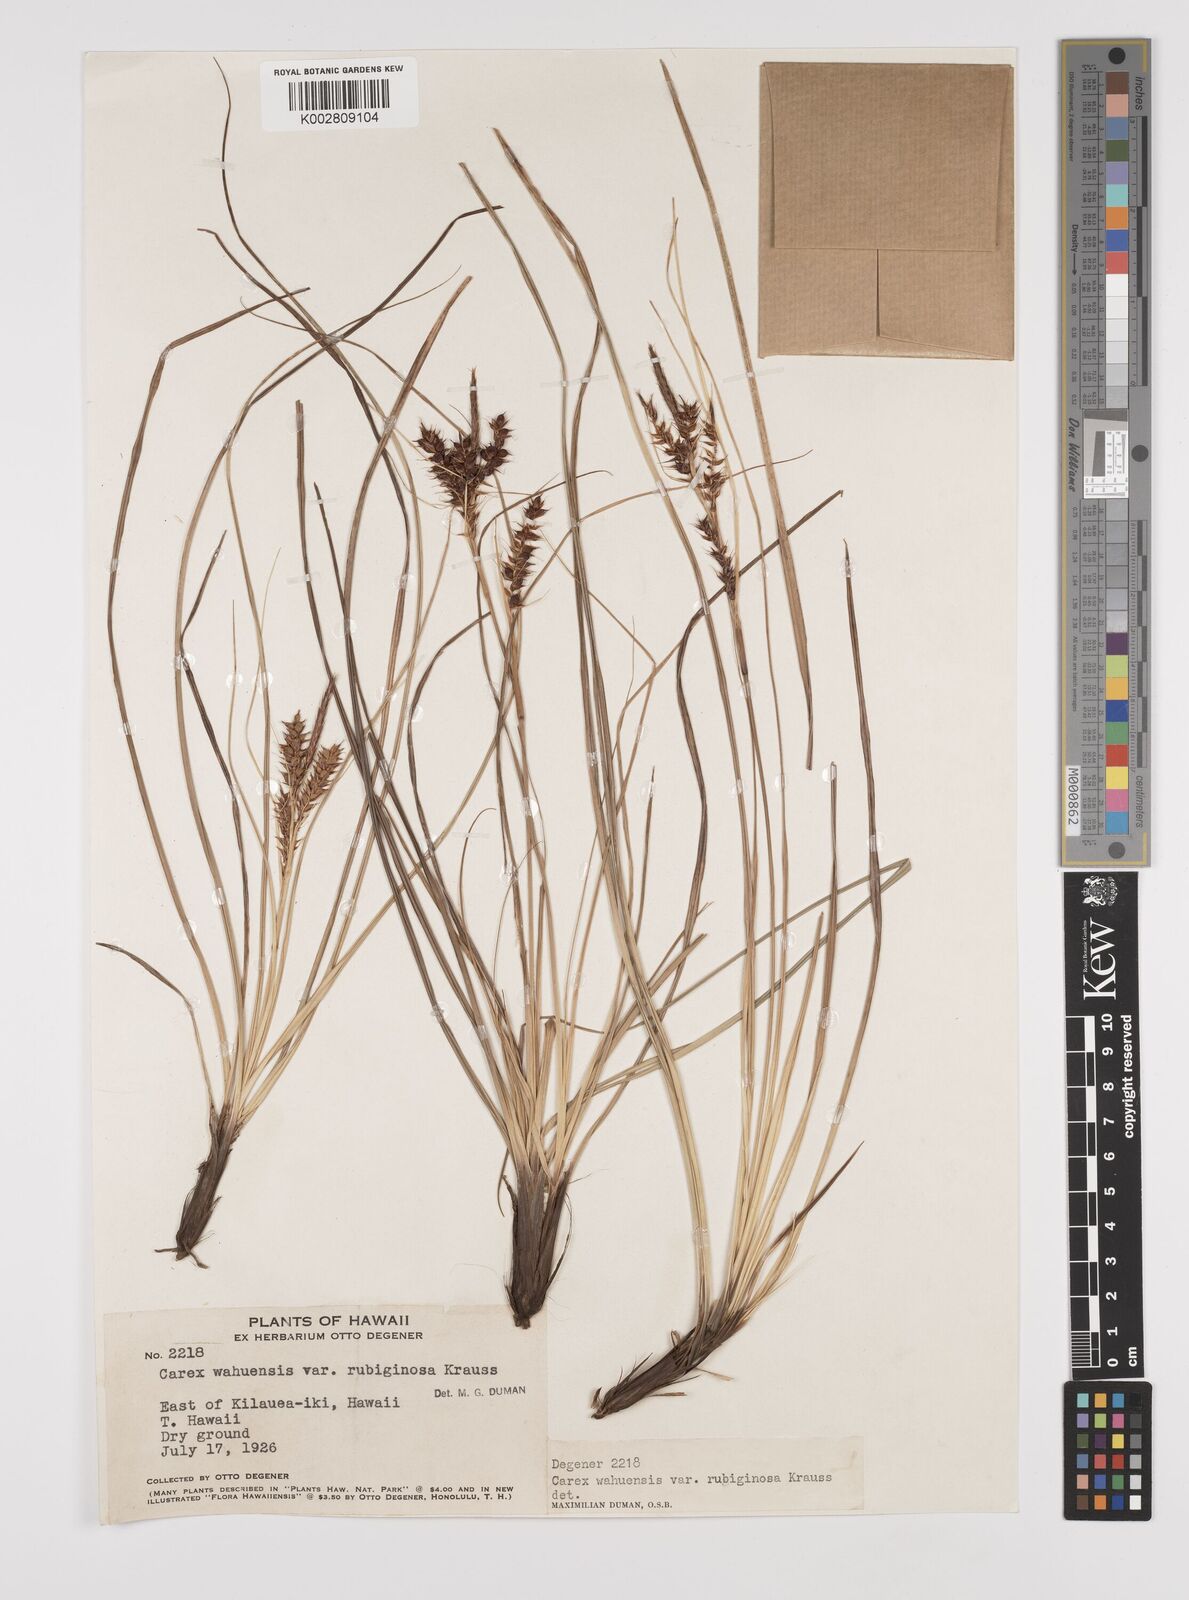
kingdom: Plantae
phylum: Tracheophyta
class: Liliopsida
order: Poales
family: Cyperaceae
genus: Carex
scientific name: Carex wahuensis
